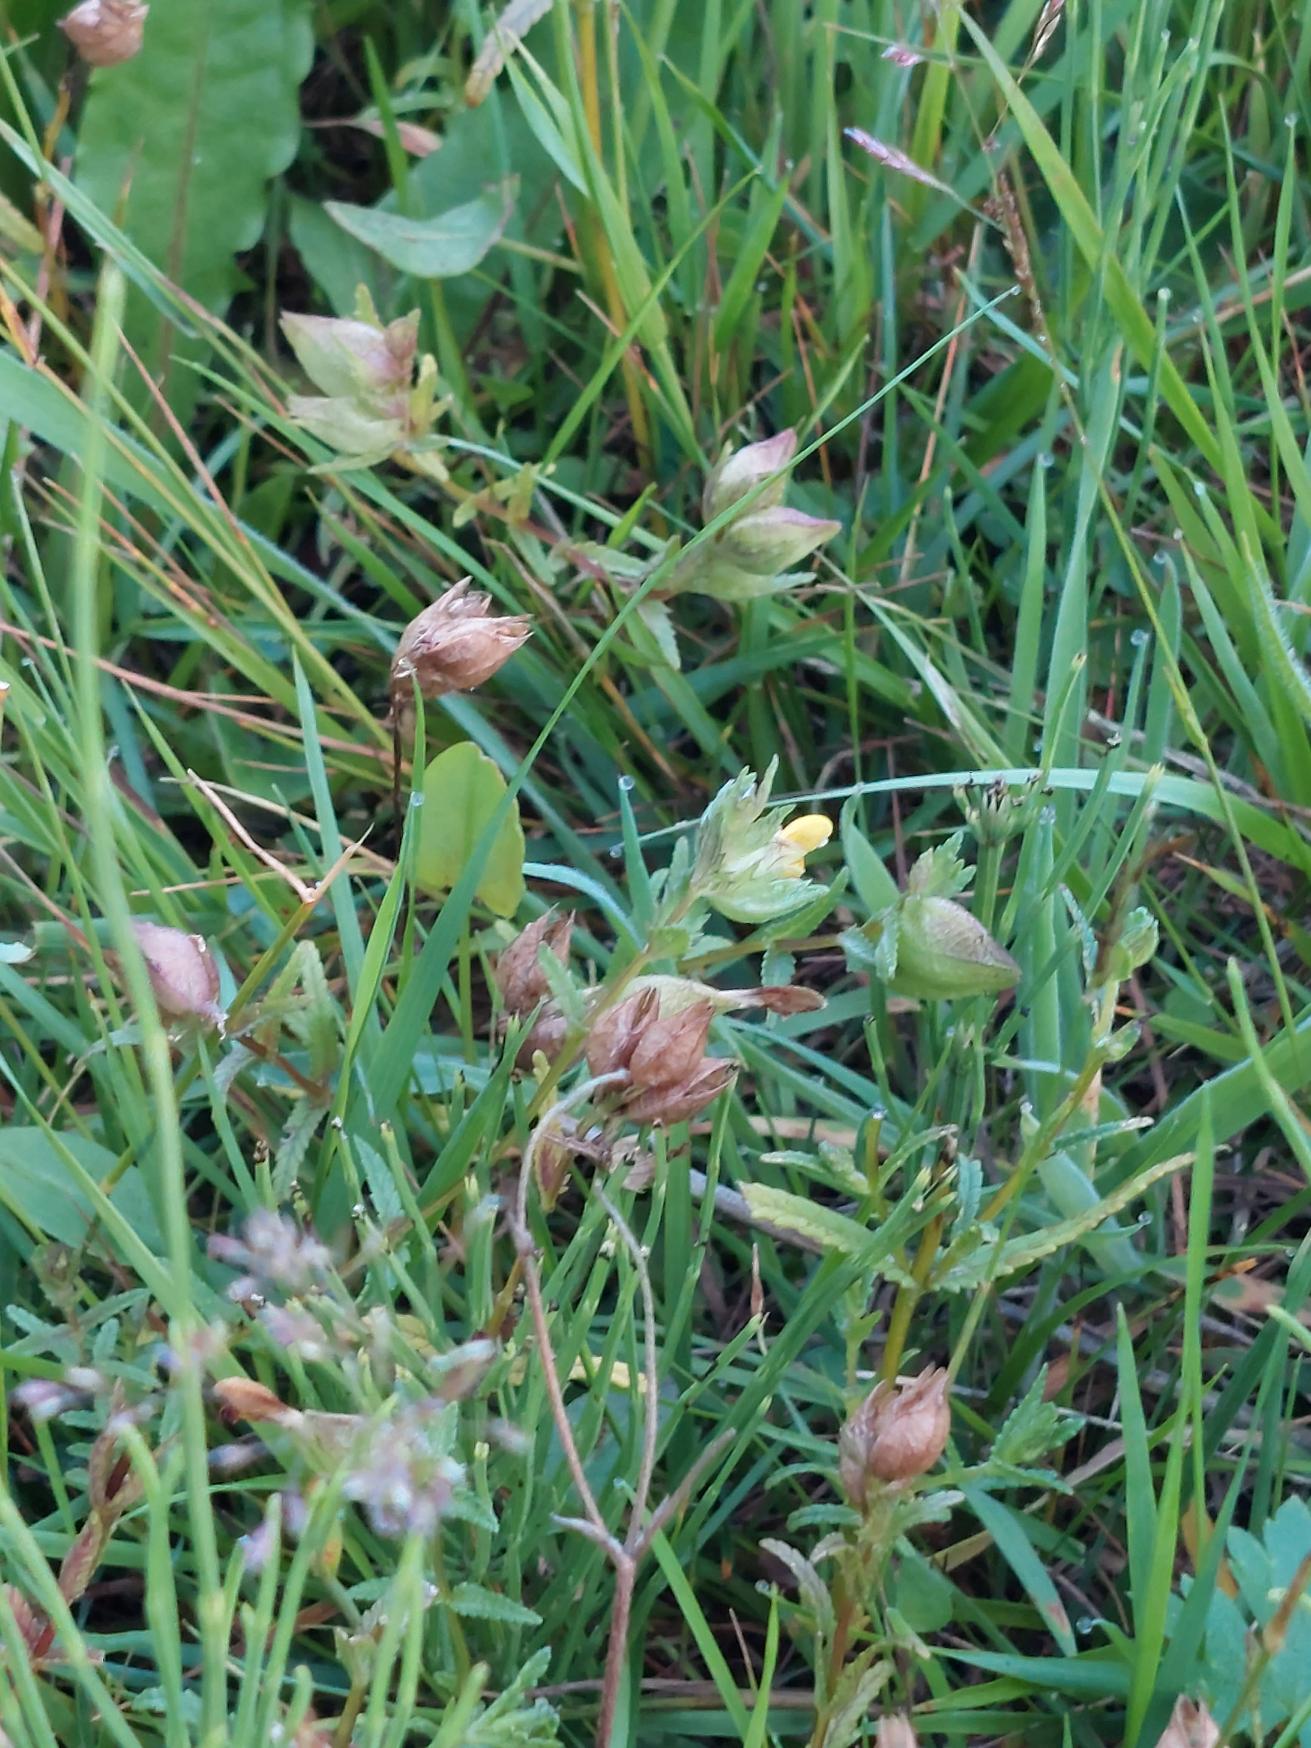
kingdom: Plantae
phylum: Tracheophyta
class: Magnoliopsida
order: Lamiales
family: Orobanchaceae
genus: Rhinanthus
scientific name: Rhinanthus minor
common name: Liden skjaller
